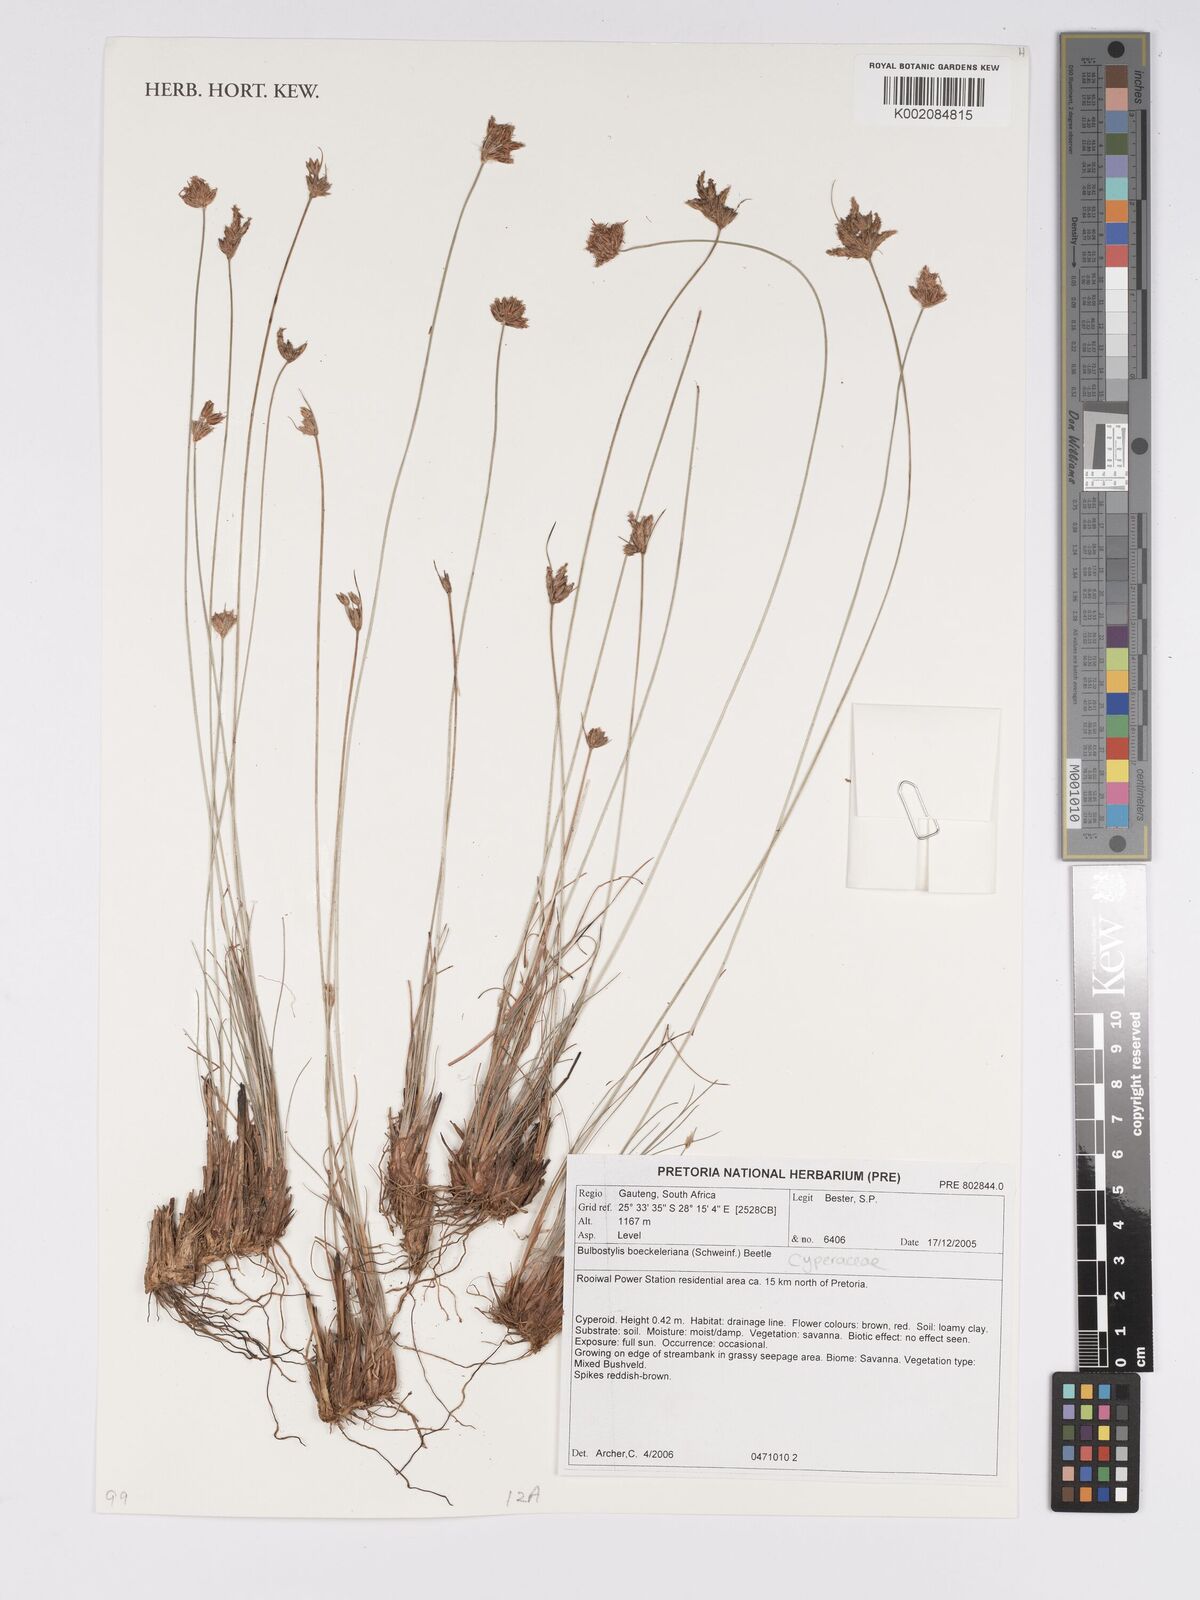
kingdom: Plantae
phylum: Tracheophyta
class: Liliopsida
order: Poales
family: Cyperaceae
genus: Bulbostylis
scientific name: Bulbostylis boeckeleriana
